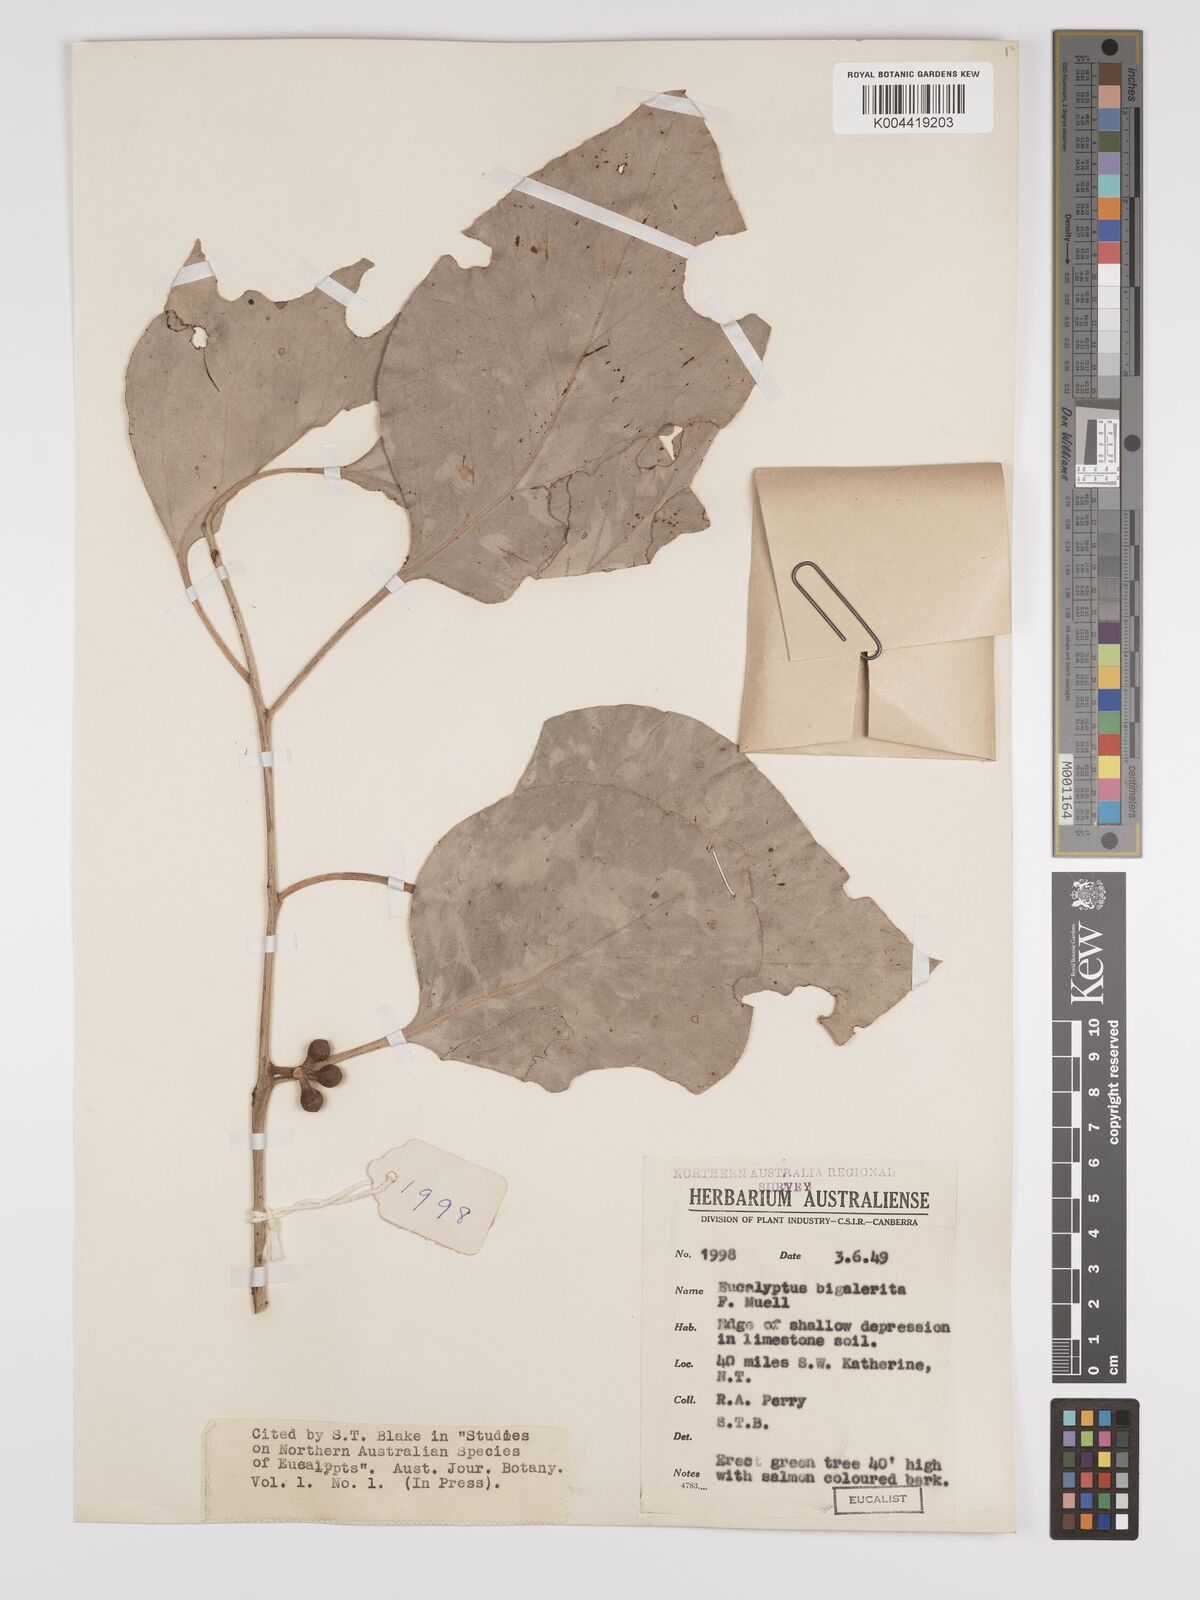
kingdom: Plantae
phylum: Tracheophyta
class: Magnoliopsida
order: Myrtales
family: Myrtaceae
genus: Eucalyptus
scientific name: Eucalyptus bigalerita
